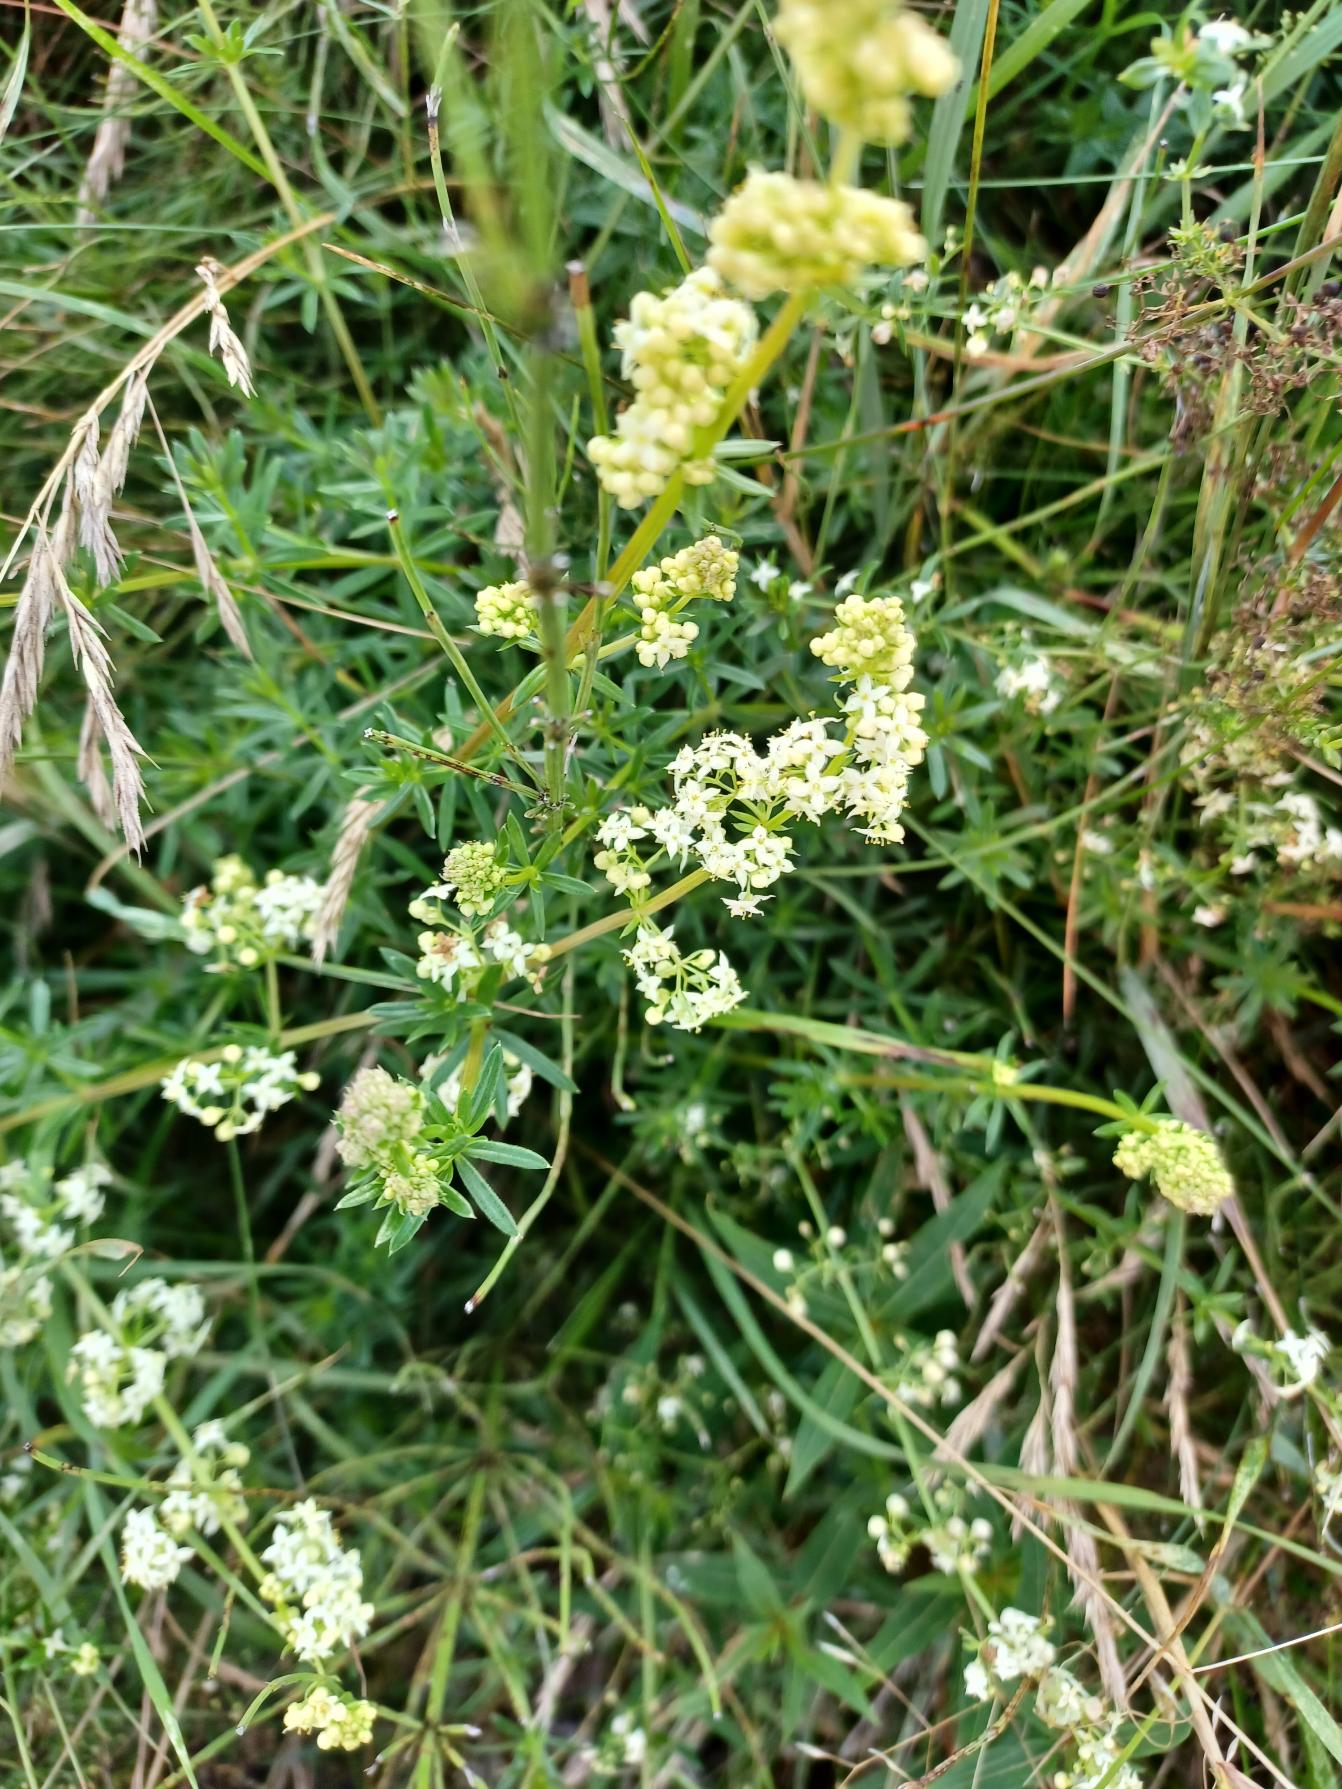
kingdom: Plantae
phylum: Tracheophyta
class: Magnoliopsida
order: Gentianales
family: Rubiaceae
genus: Galium
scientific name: Galium mollugo
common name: Hvid snerre
